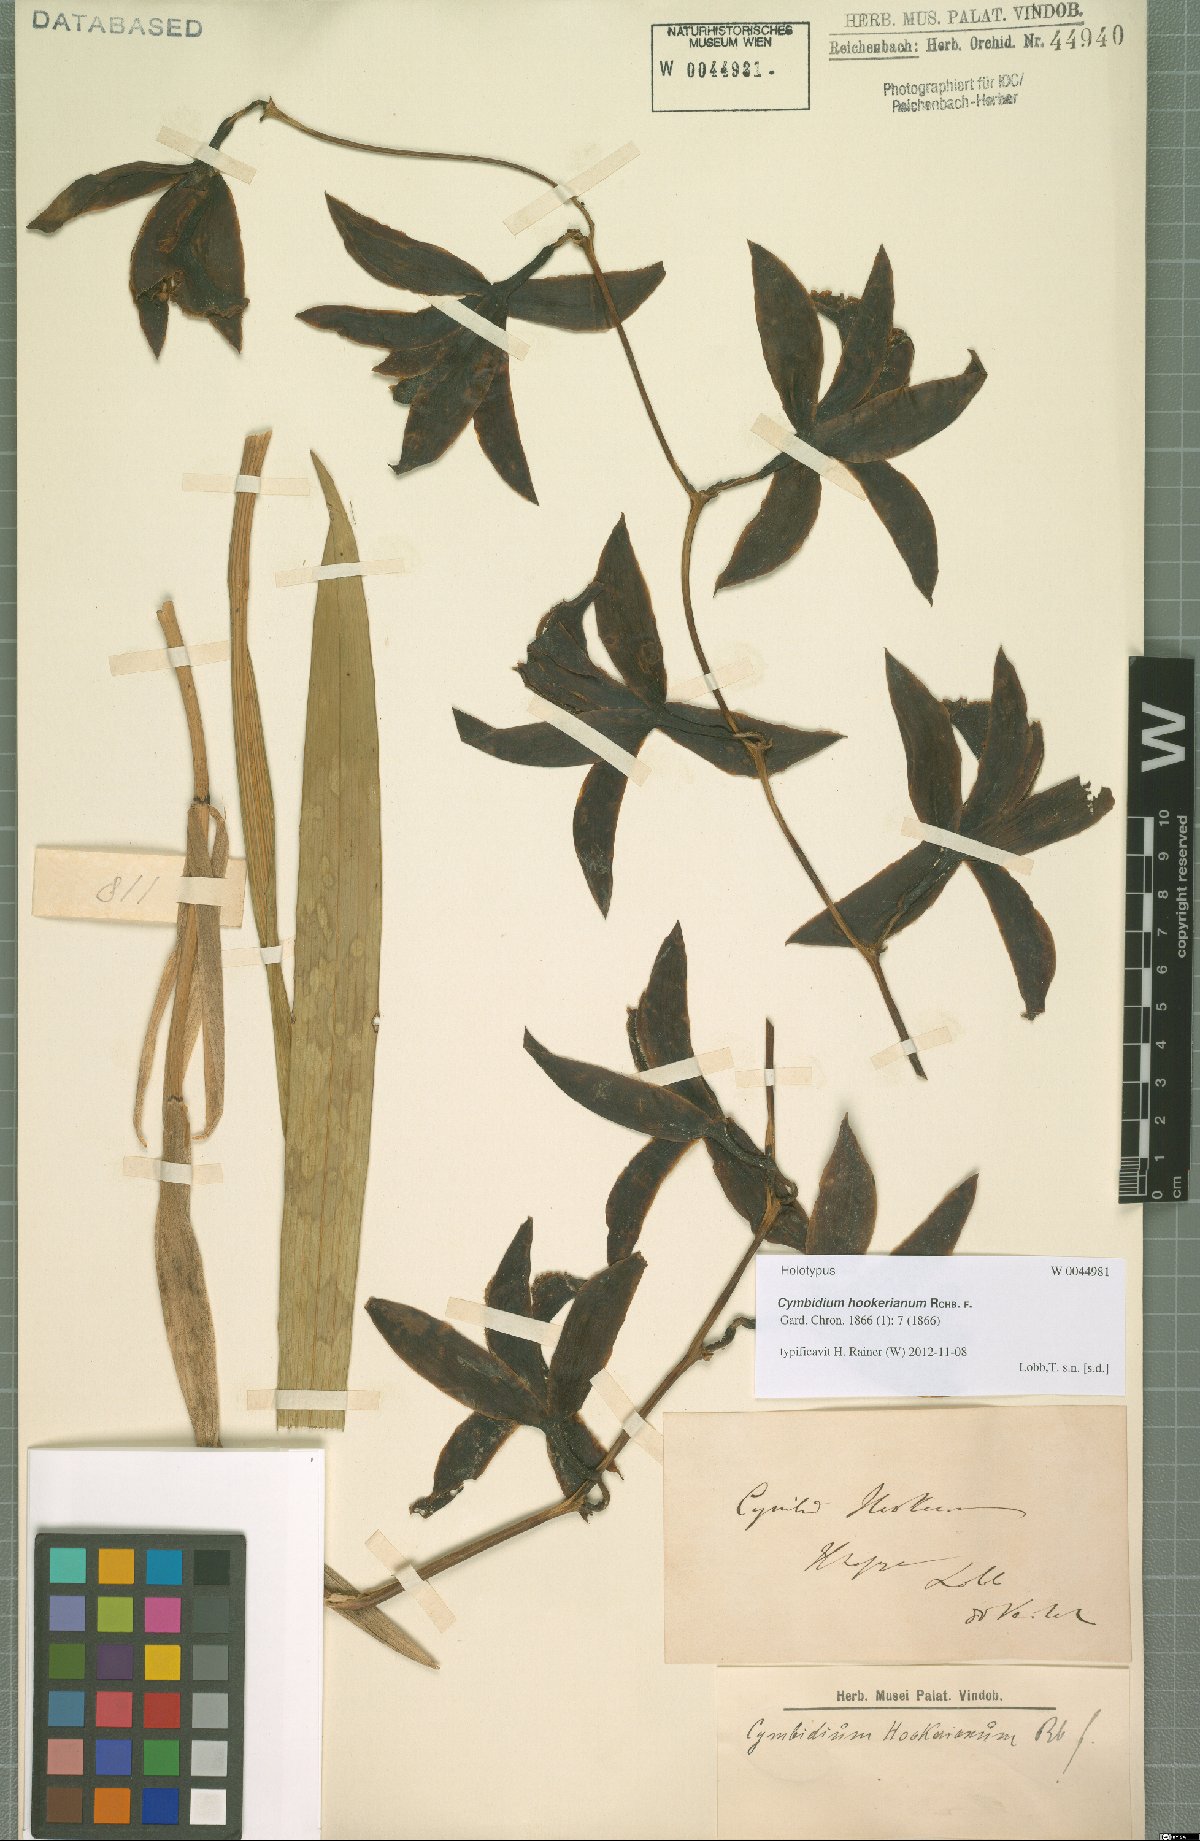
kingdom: Plantae
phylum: Tracheophyta
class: Liliopsida
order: Asparagales
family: Orchidaceae
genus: Cymbidium
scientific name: Cymbidium hookerianum
